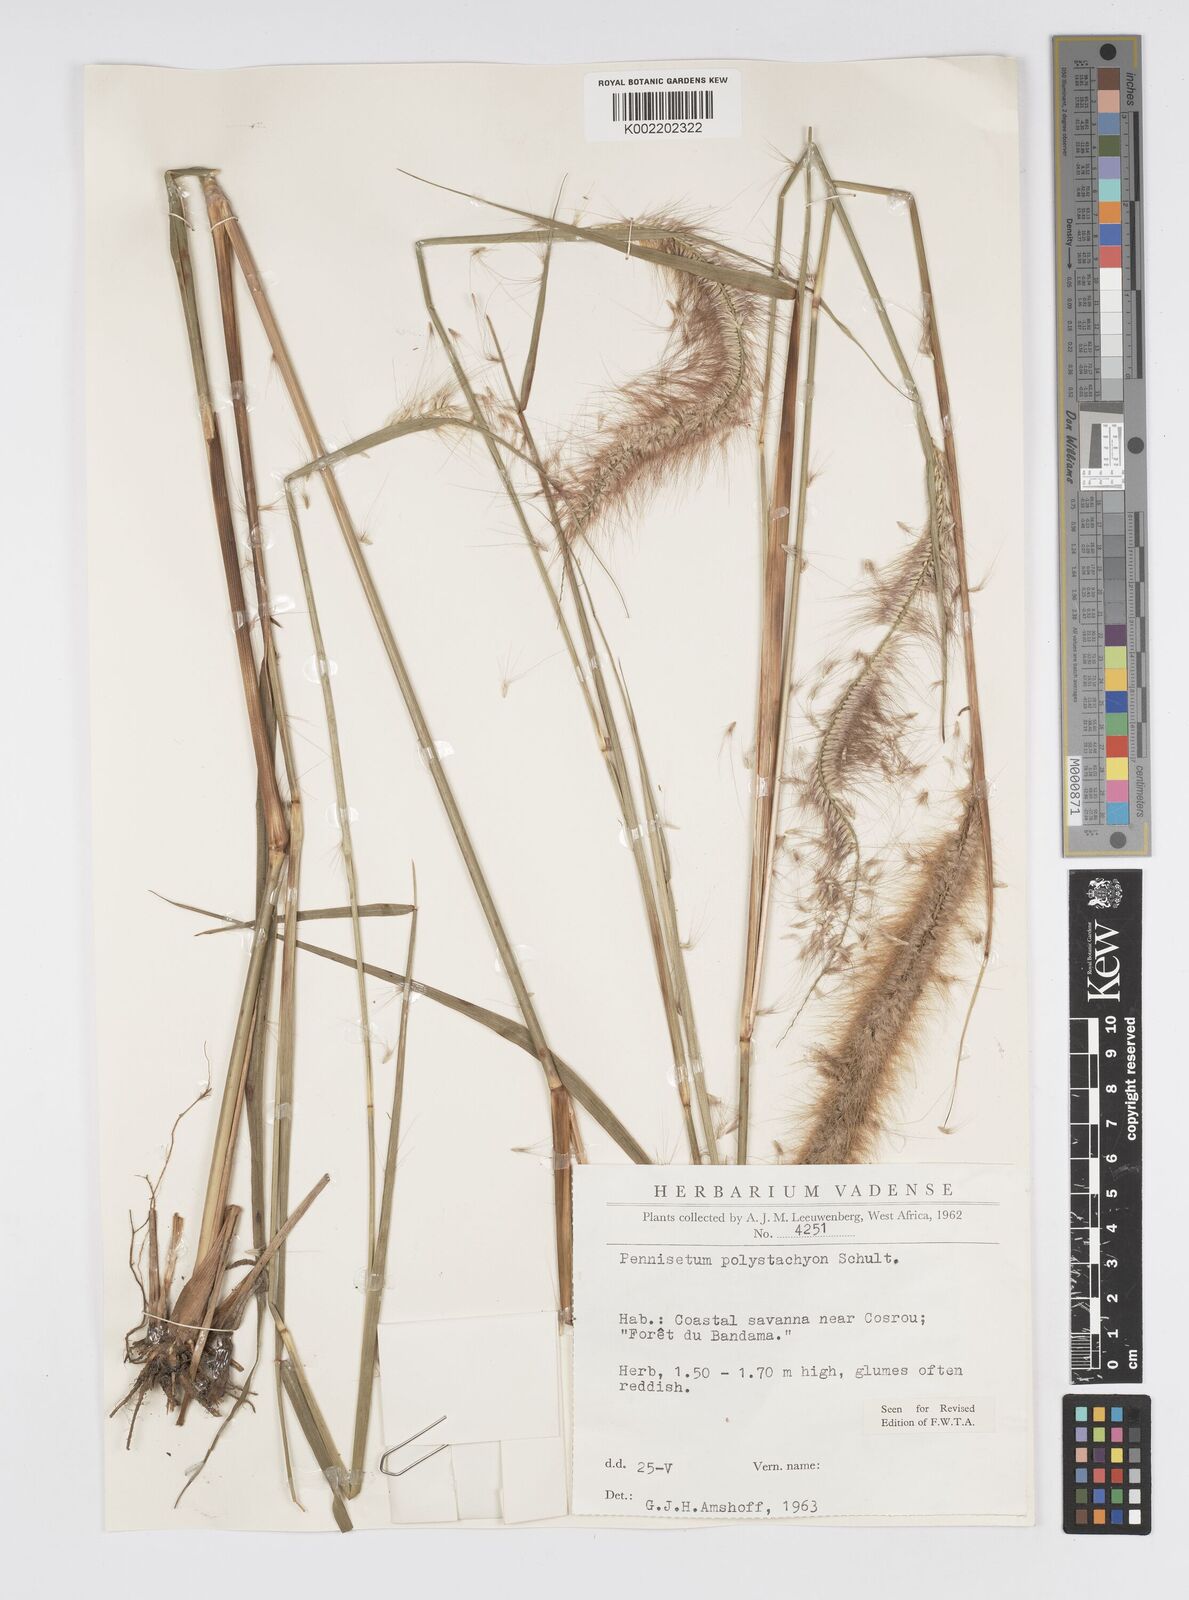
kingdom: Plantae
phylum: Tracheophyta
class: Liliopsida
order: Poales
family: Poaceae
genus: Setaria
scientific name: Setaria parviflora
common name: Knotroot bristle-grass
